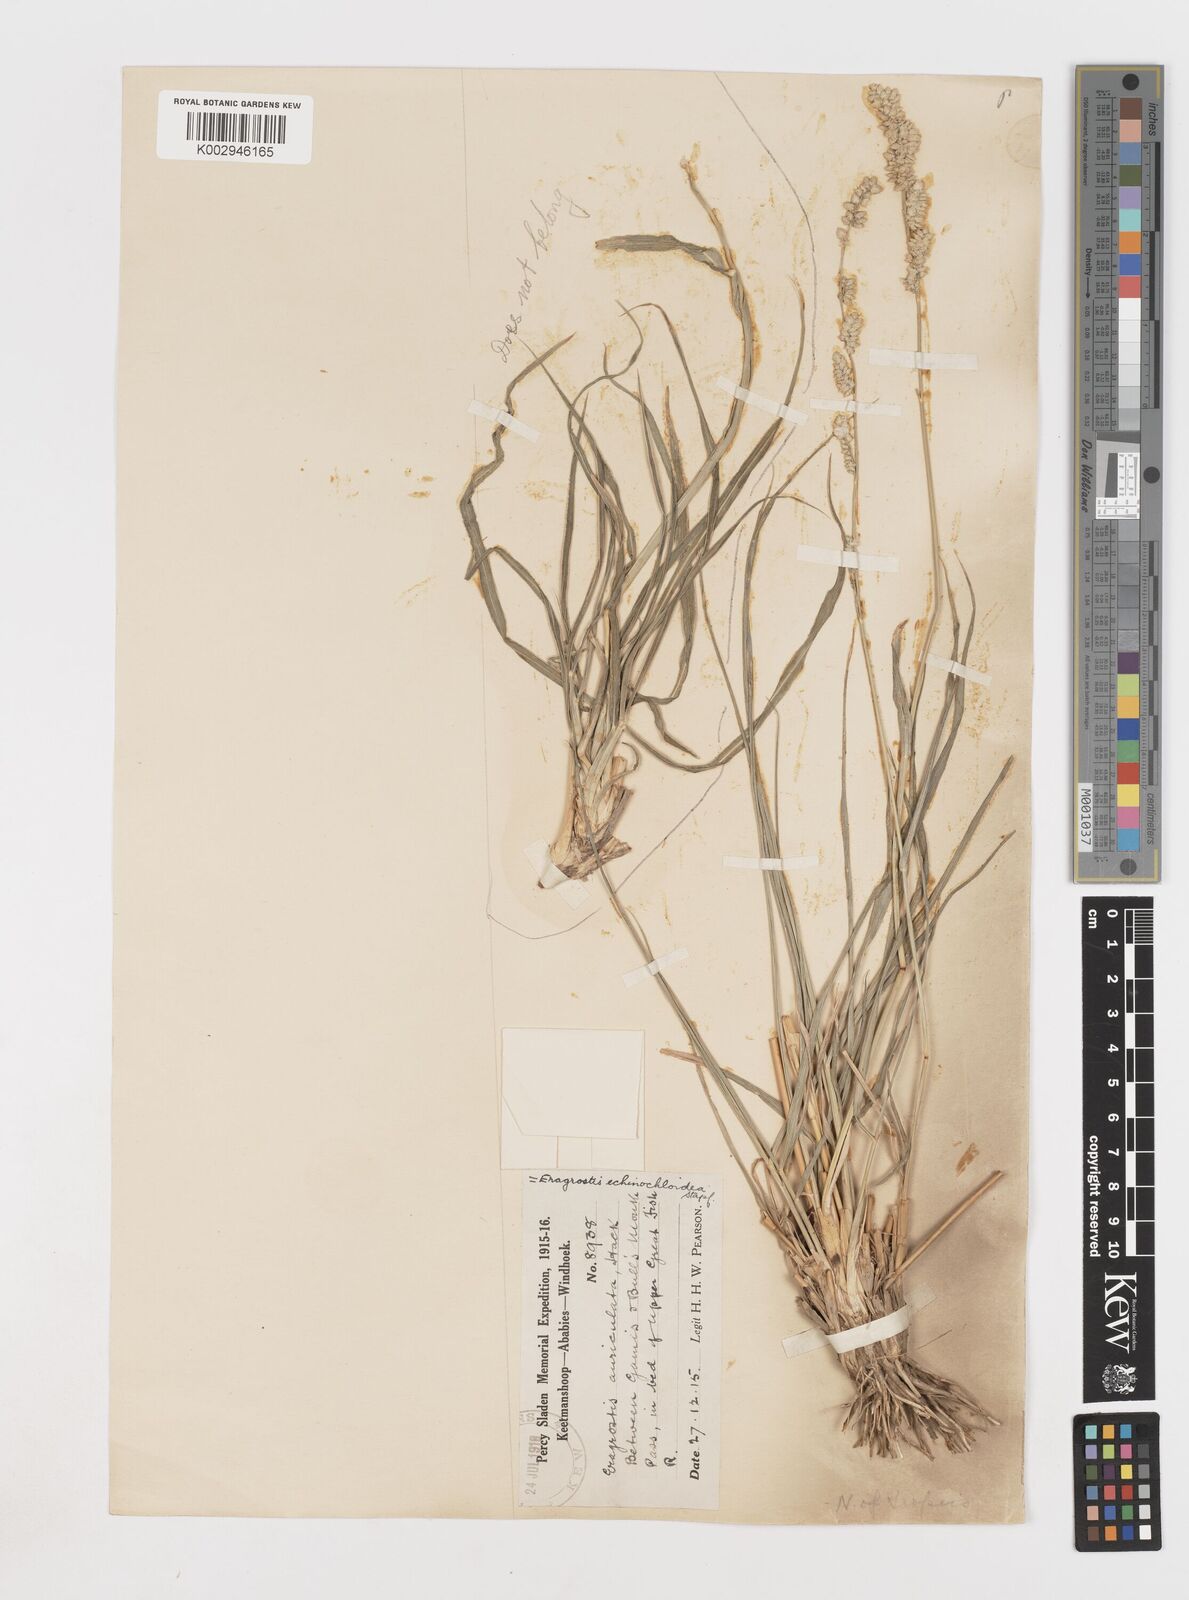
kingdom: Plantae
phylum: Tracheophyta
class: Liliopsida
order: Poales
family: Poaceae
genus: Eragrostis
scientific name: Eragrostis echinochloidea
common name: African lovegrass
